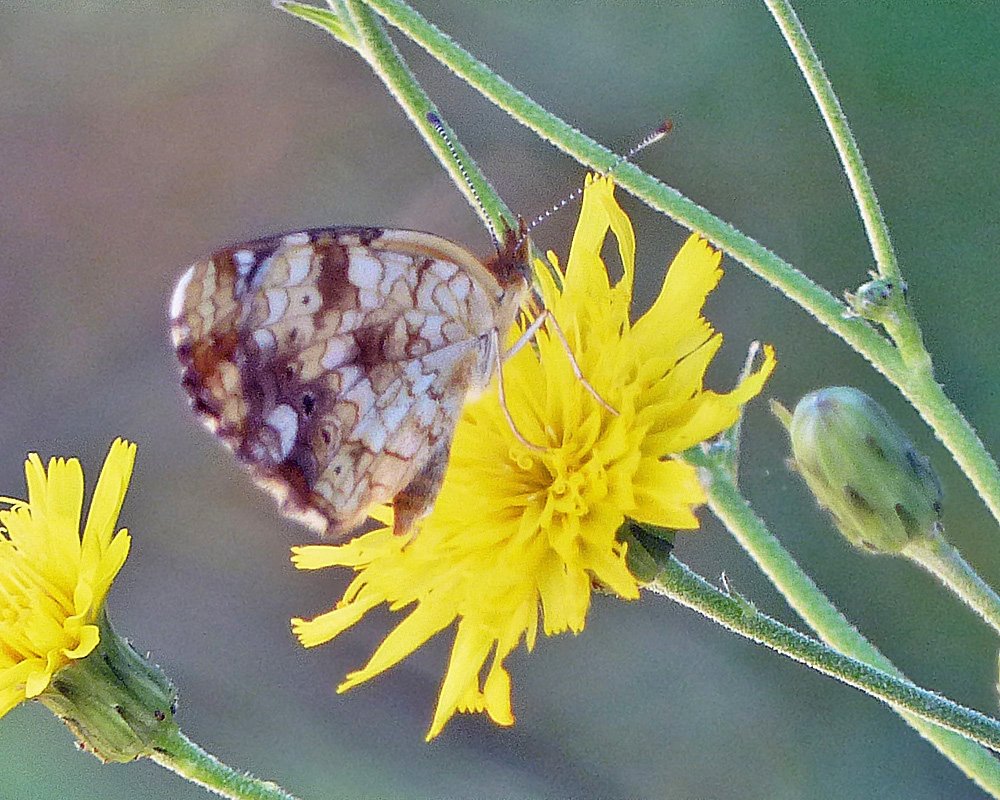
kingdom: Animalia
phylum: Arthropoda
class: Insecta
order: Lepidoptera
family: Nymphalidae
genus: Eresia
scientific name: Eresia aveyrona
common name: Mylitta Crescent
